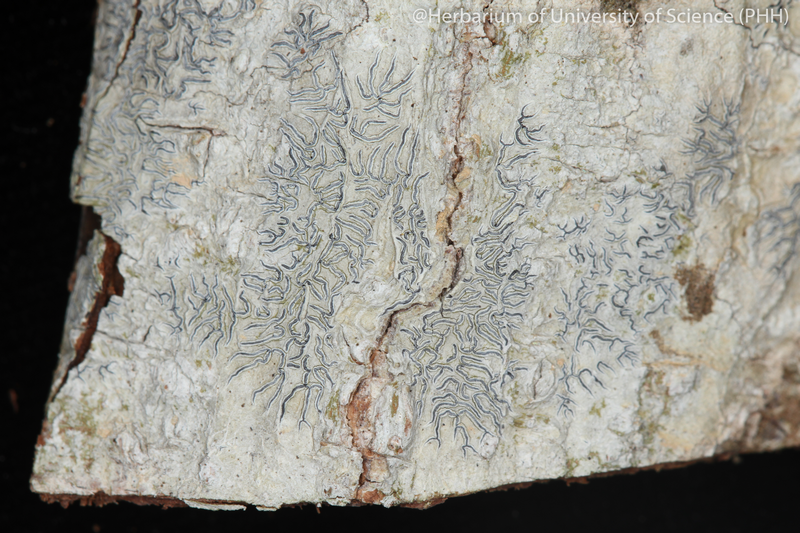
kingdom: Fungi
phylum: Ascomycota
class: Lecanoromycetes
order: Ostropales
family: Graphidaceae
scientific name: Graphidaceae
